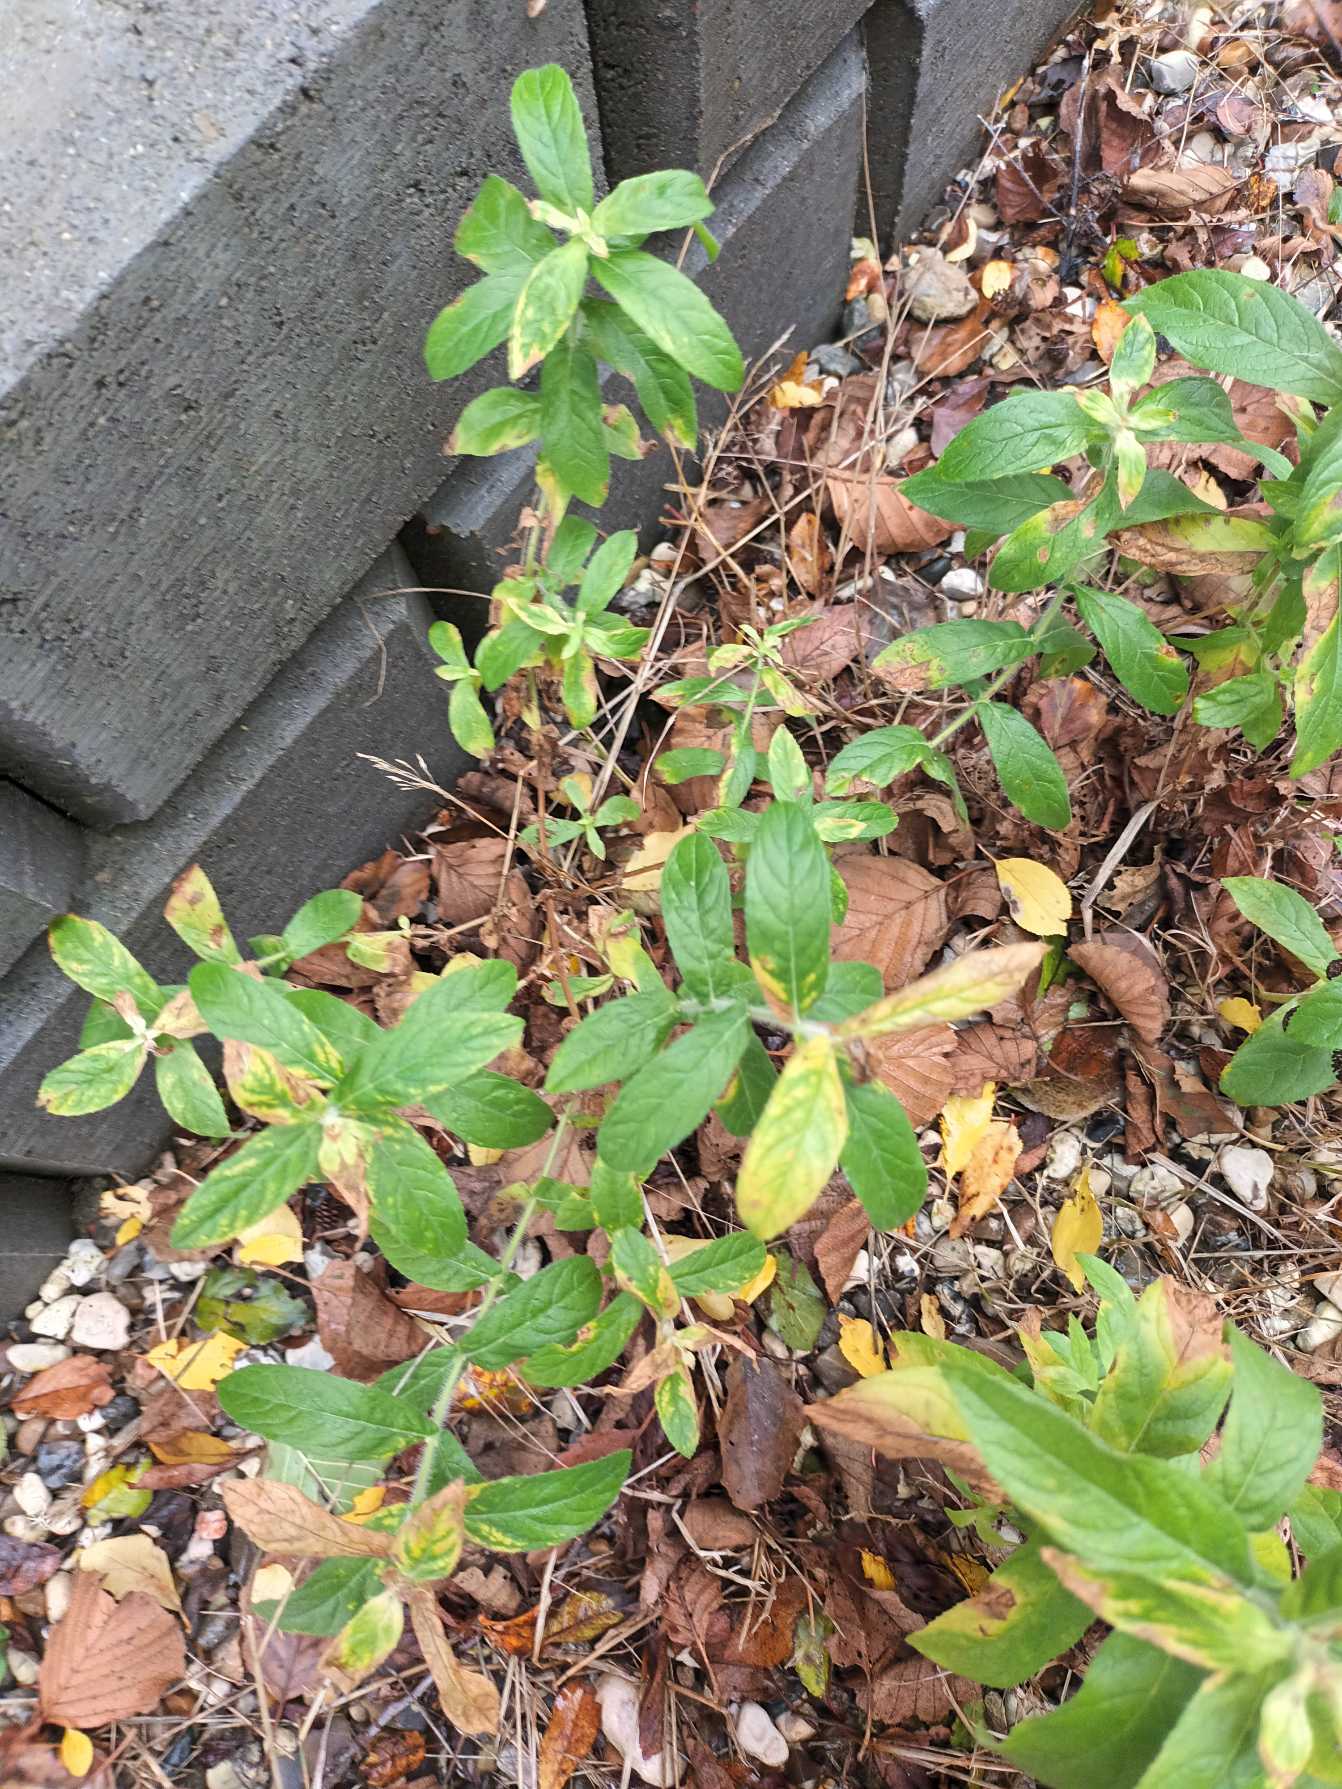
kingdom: Plantae
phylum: Tracheophyta
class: Magnoliopsida
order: Myrtales
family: Onagraceae
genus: Epilobium
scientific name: Epilobium hirsutum
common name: Lådden dueurt
